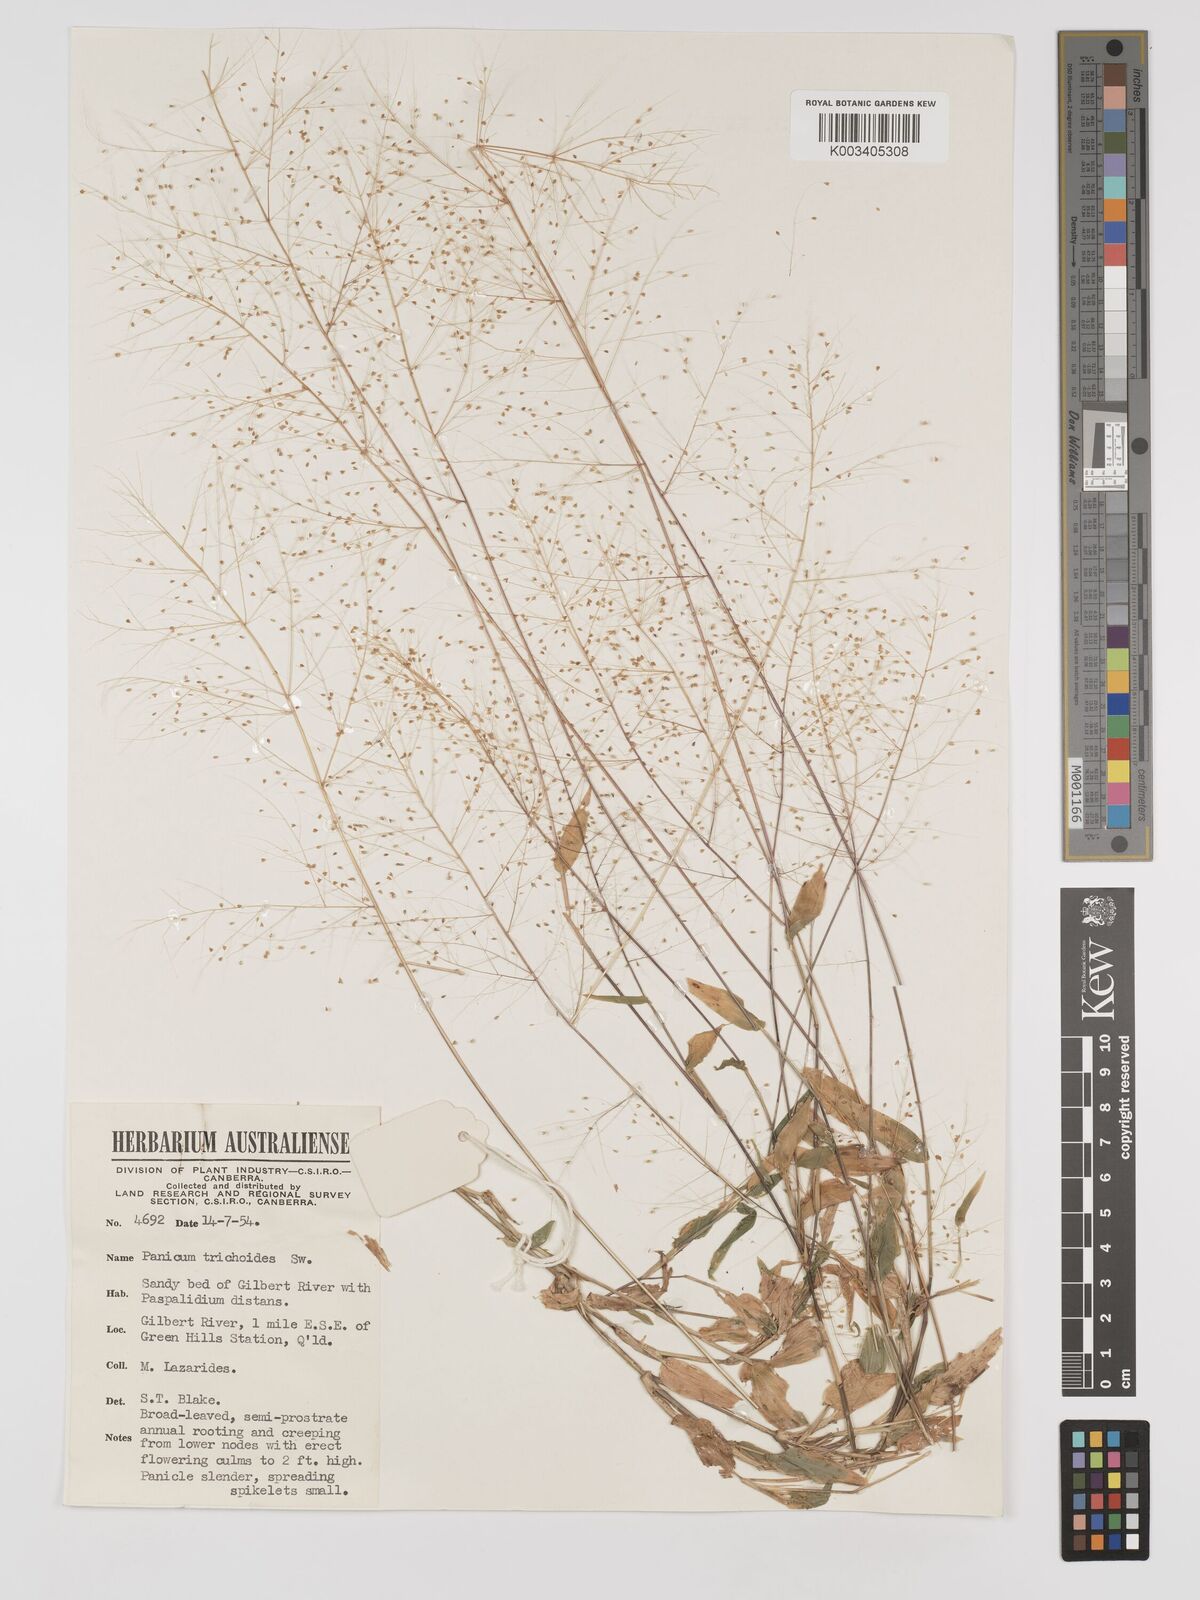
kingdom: Plantae
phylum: Tracheophyta
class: Liliopsida
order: Poales
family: Poaceae
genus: Panicum
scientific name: Panicum trichoides
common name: Tickle grass
